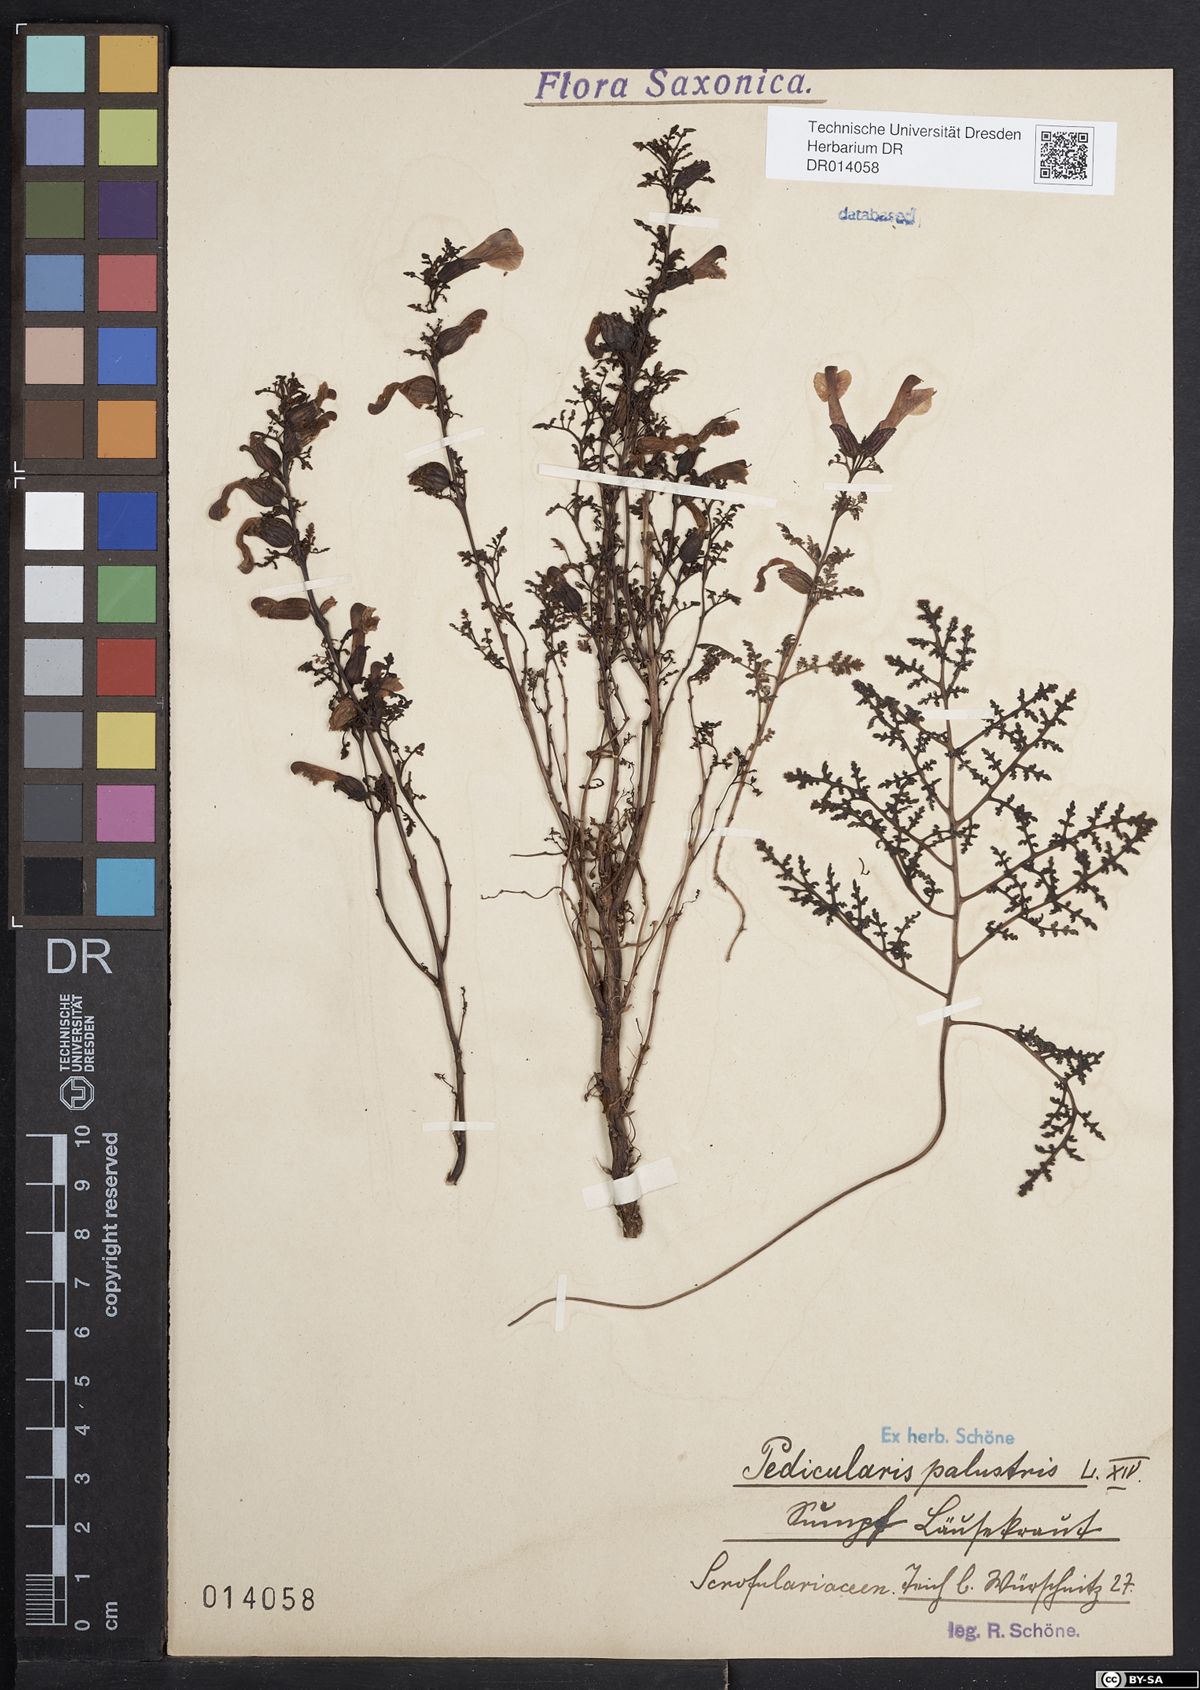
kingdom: Plantae
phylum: Tracheophyta
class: Magnoliopsida
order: Lamiales
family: Orobanchaceae
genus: Pedicularis
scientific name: Pedicularis palustris
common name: Marsh lousewort
